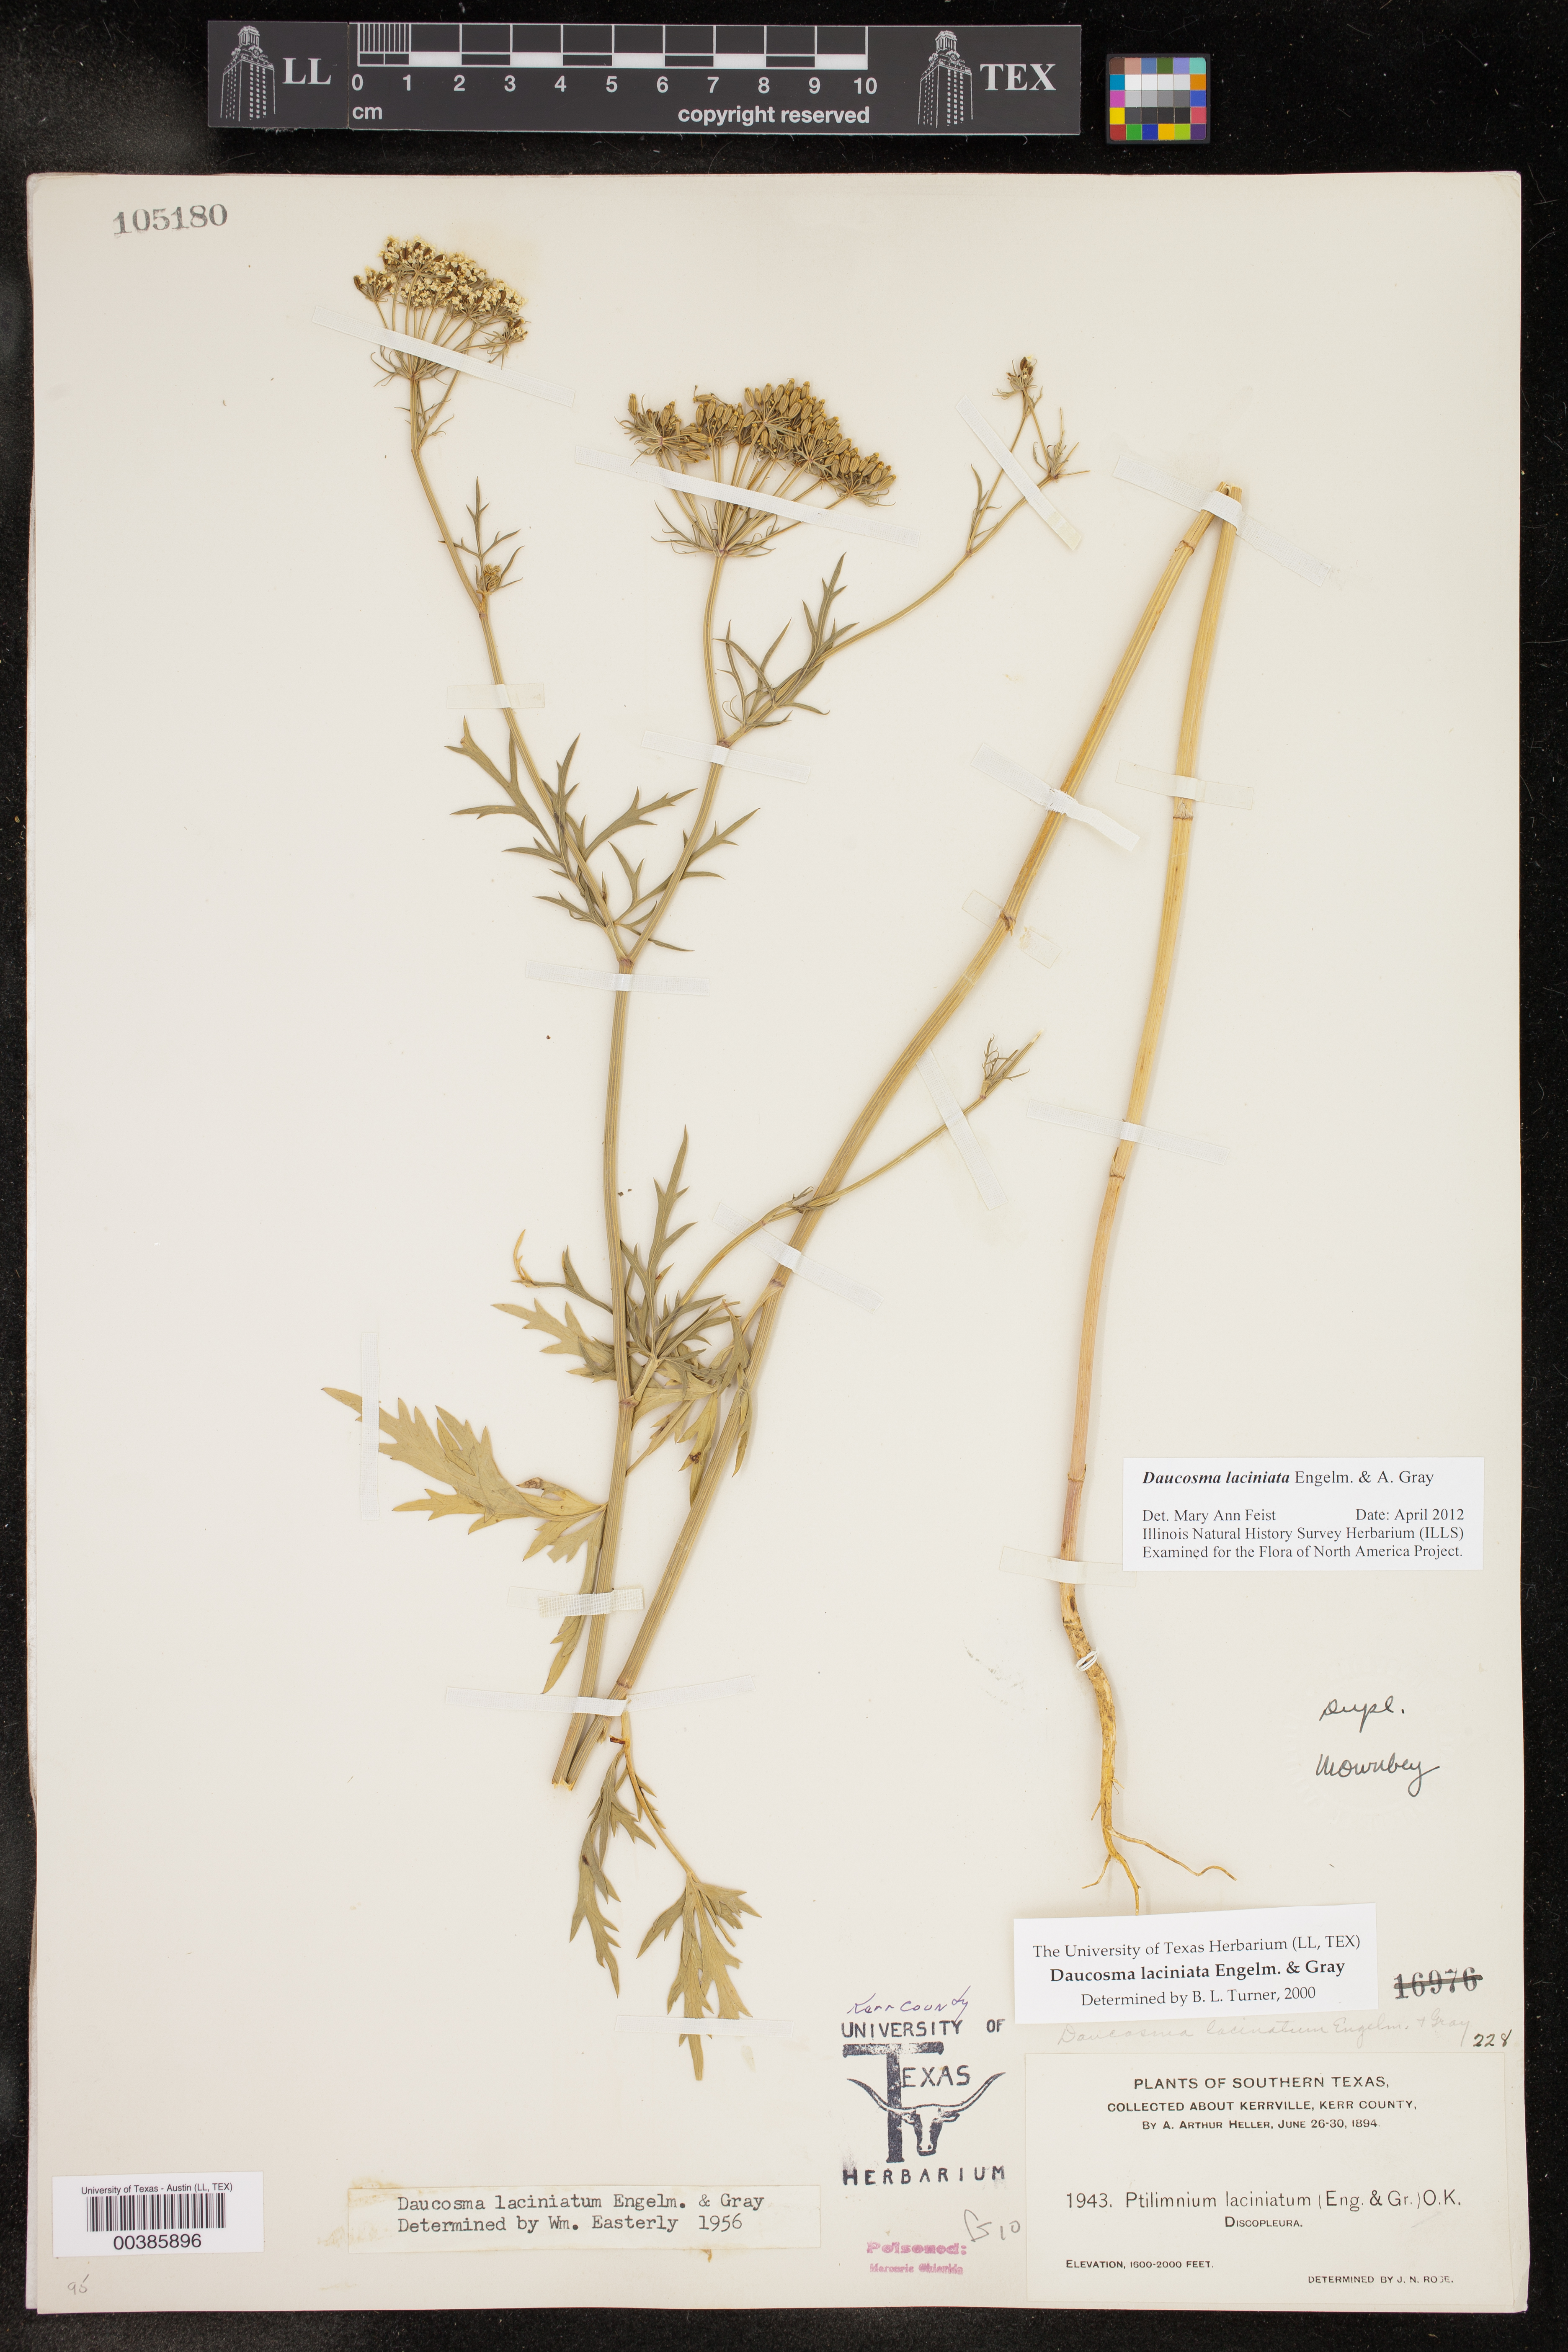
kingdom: Plantae
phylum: Tracheophyta
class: Magnoliopsida
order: Apiales
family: Apiaceae
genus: Daucosma
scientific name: Daucosma laciniatum
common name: Meadow-parasol
